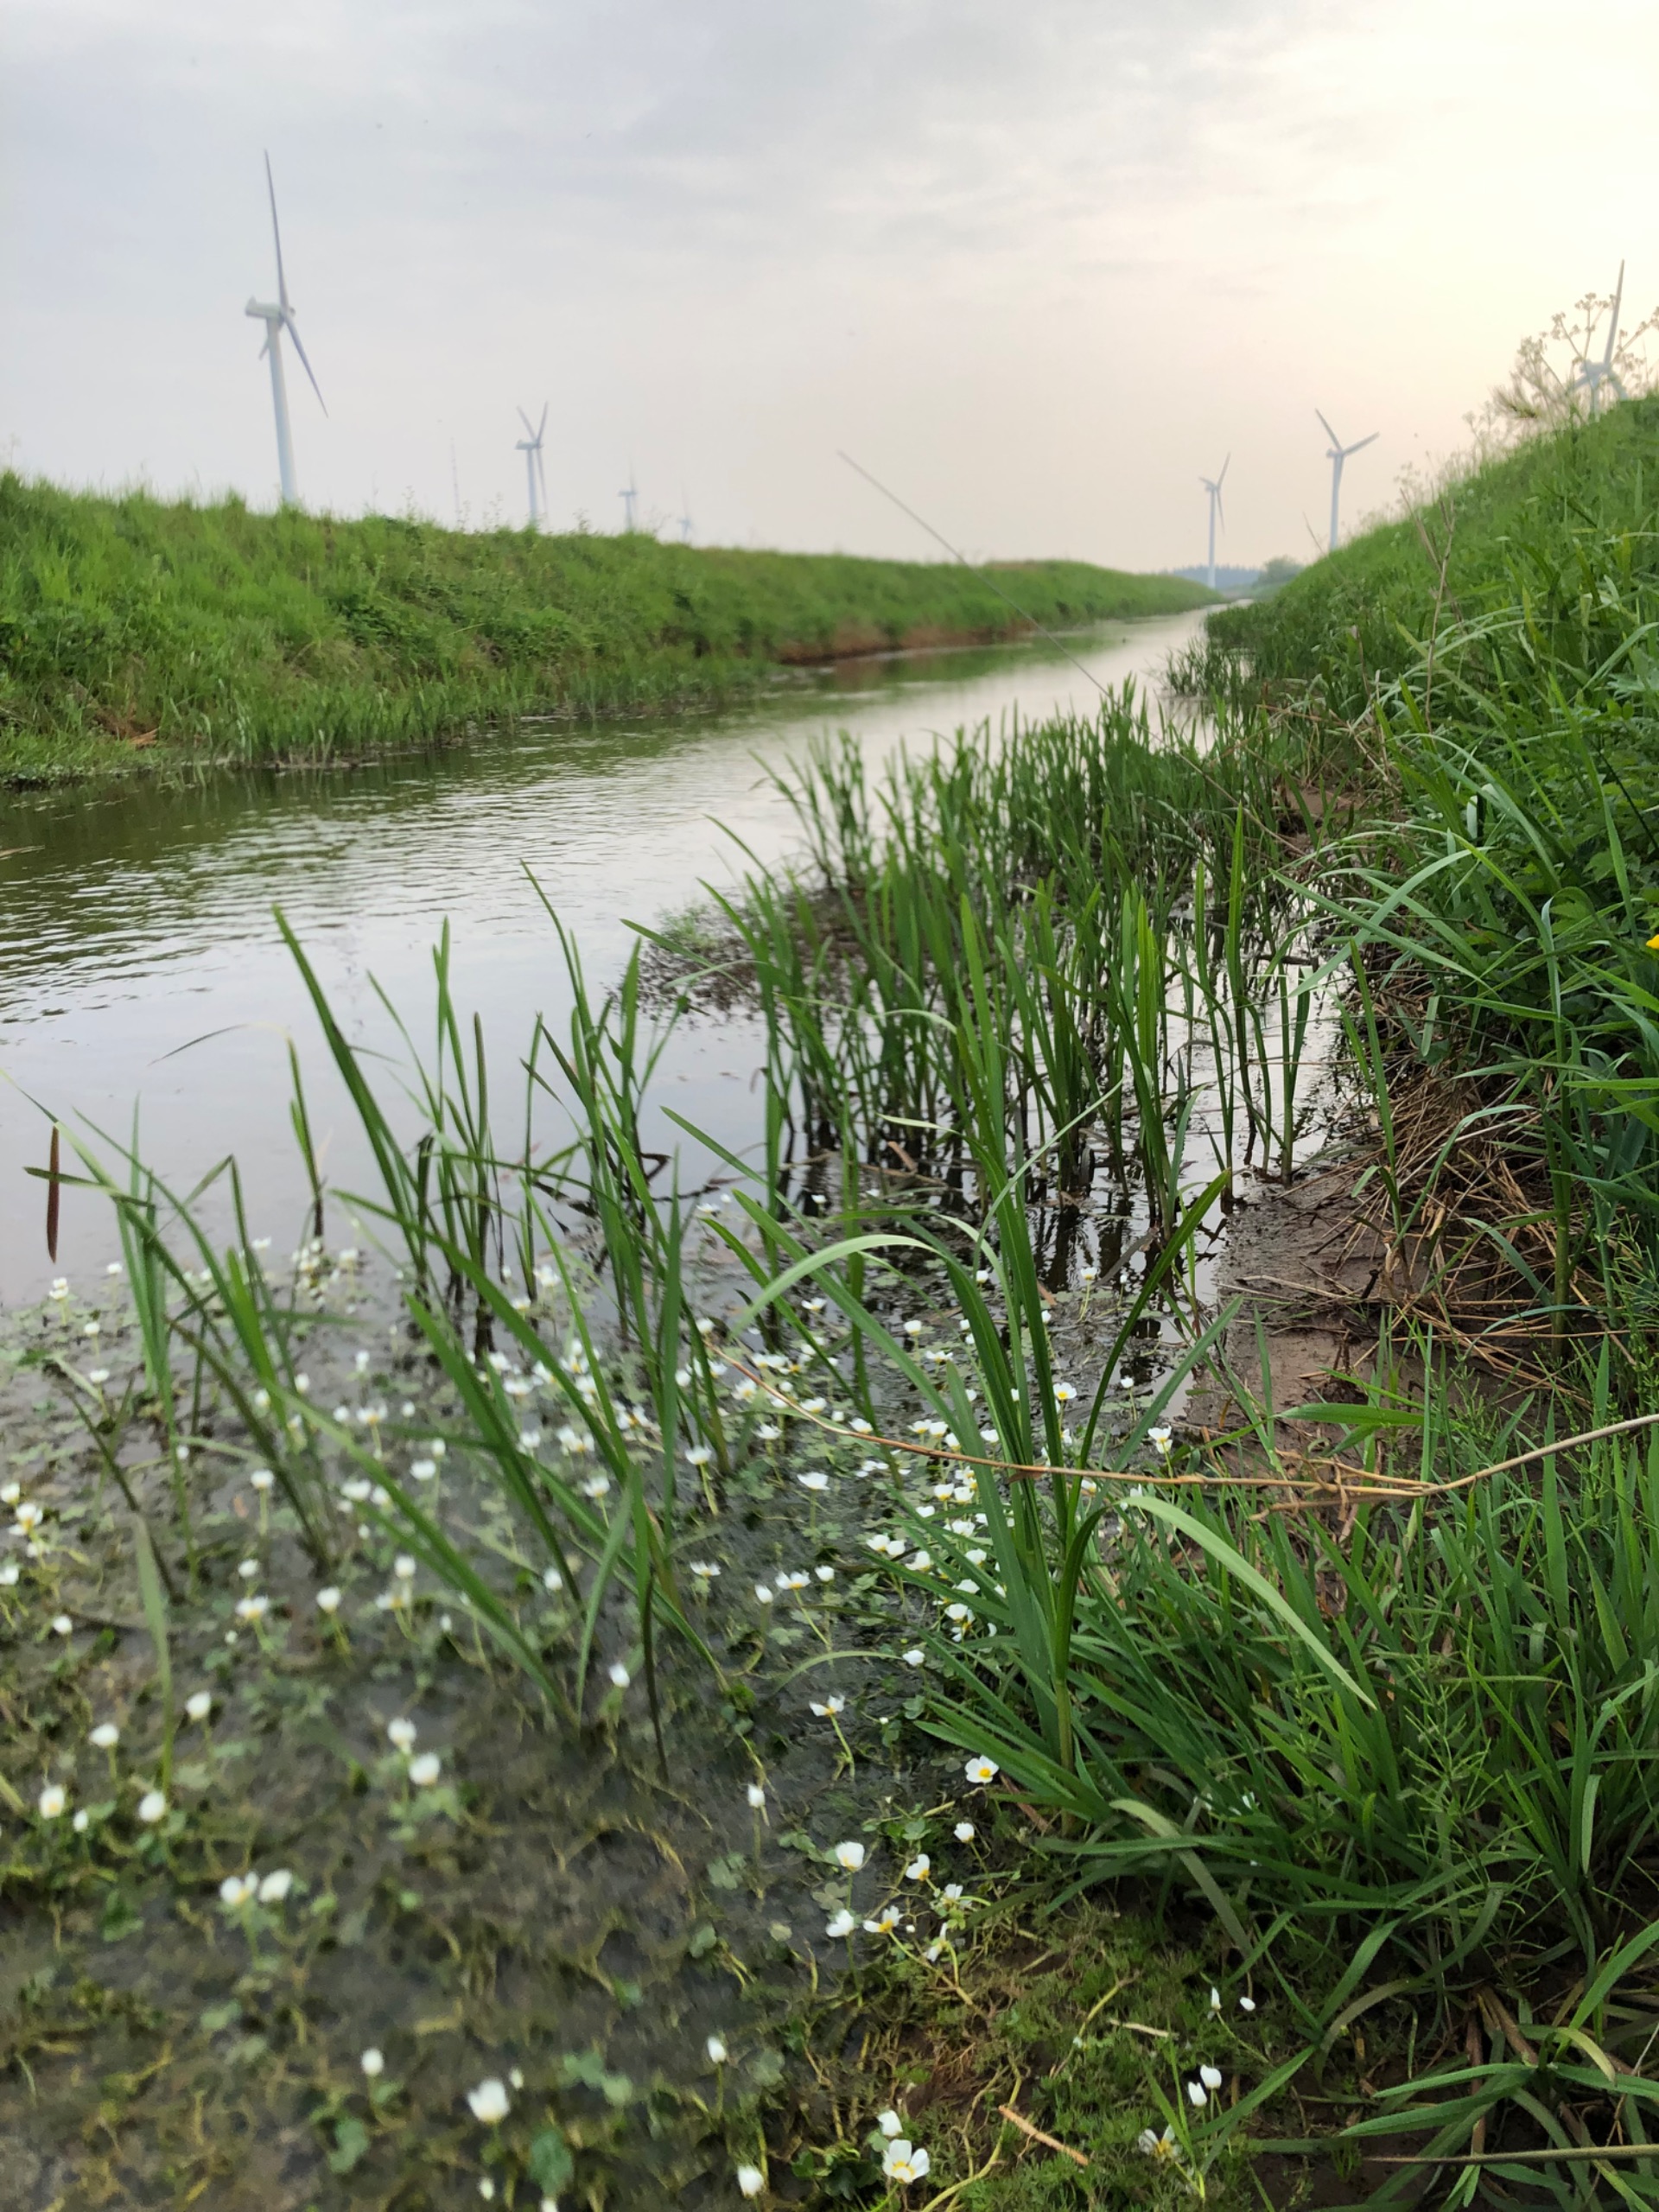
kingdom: Plantae
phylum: Tracheophyta
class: Magnoliopsida
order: Ranunculales
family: Ranunculaceae
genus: Ranunculus
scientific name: Ranunculus peltatus
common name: Storblomstret vandranunkel (underart)
